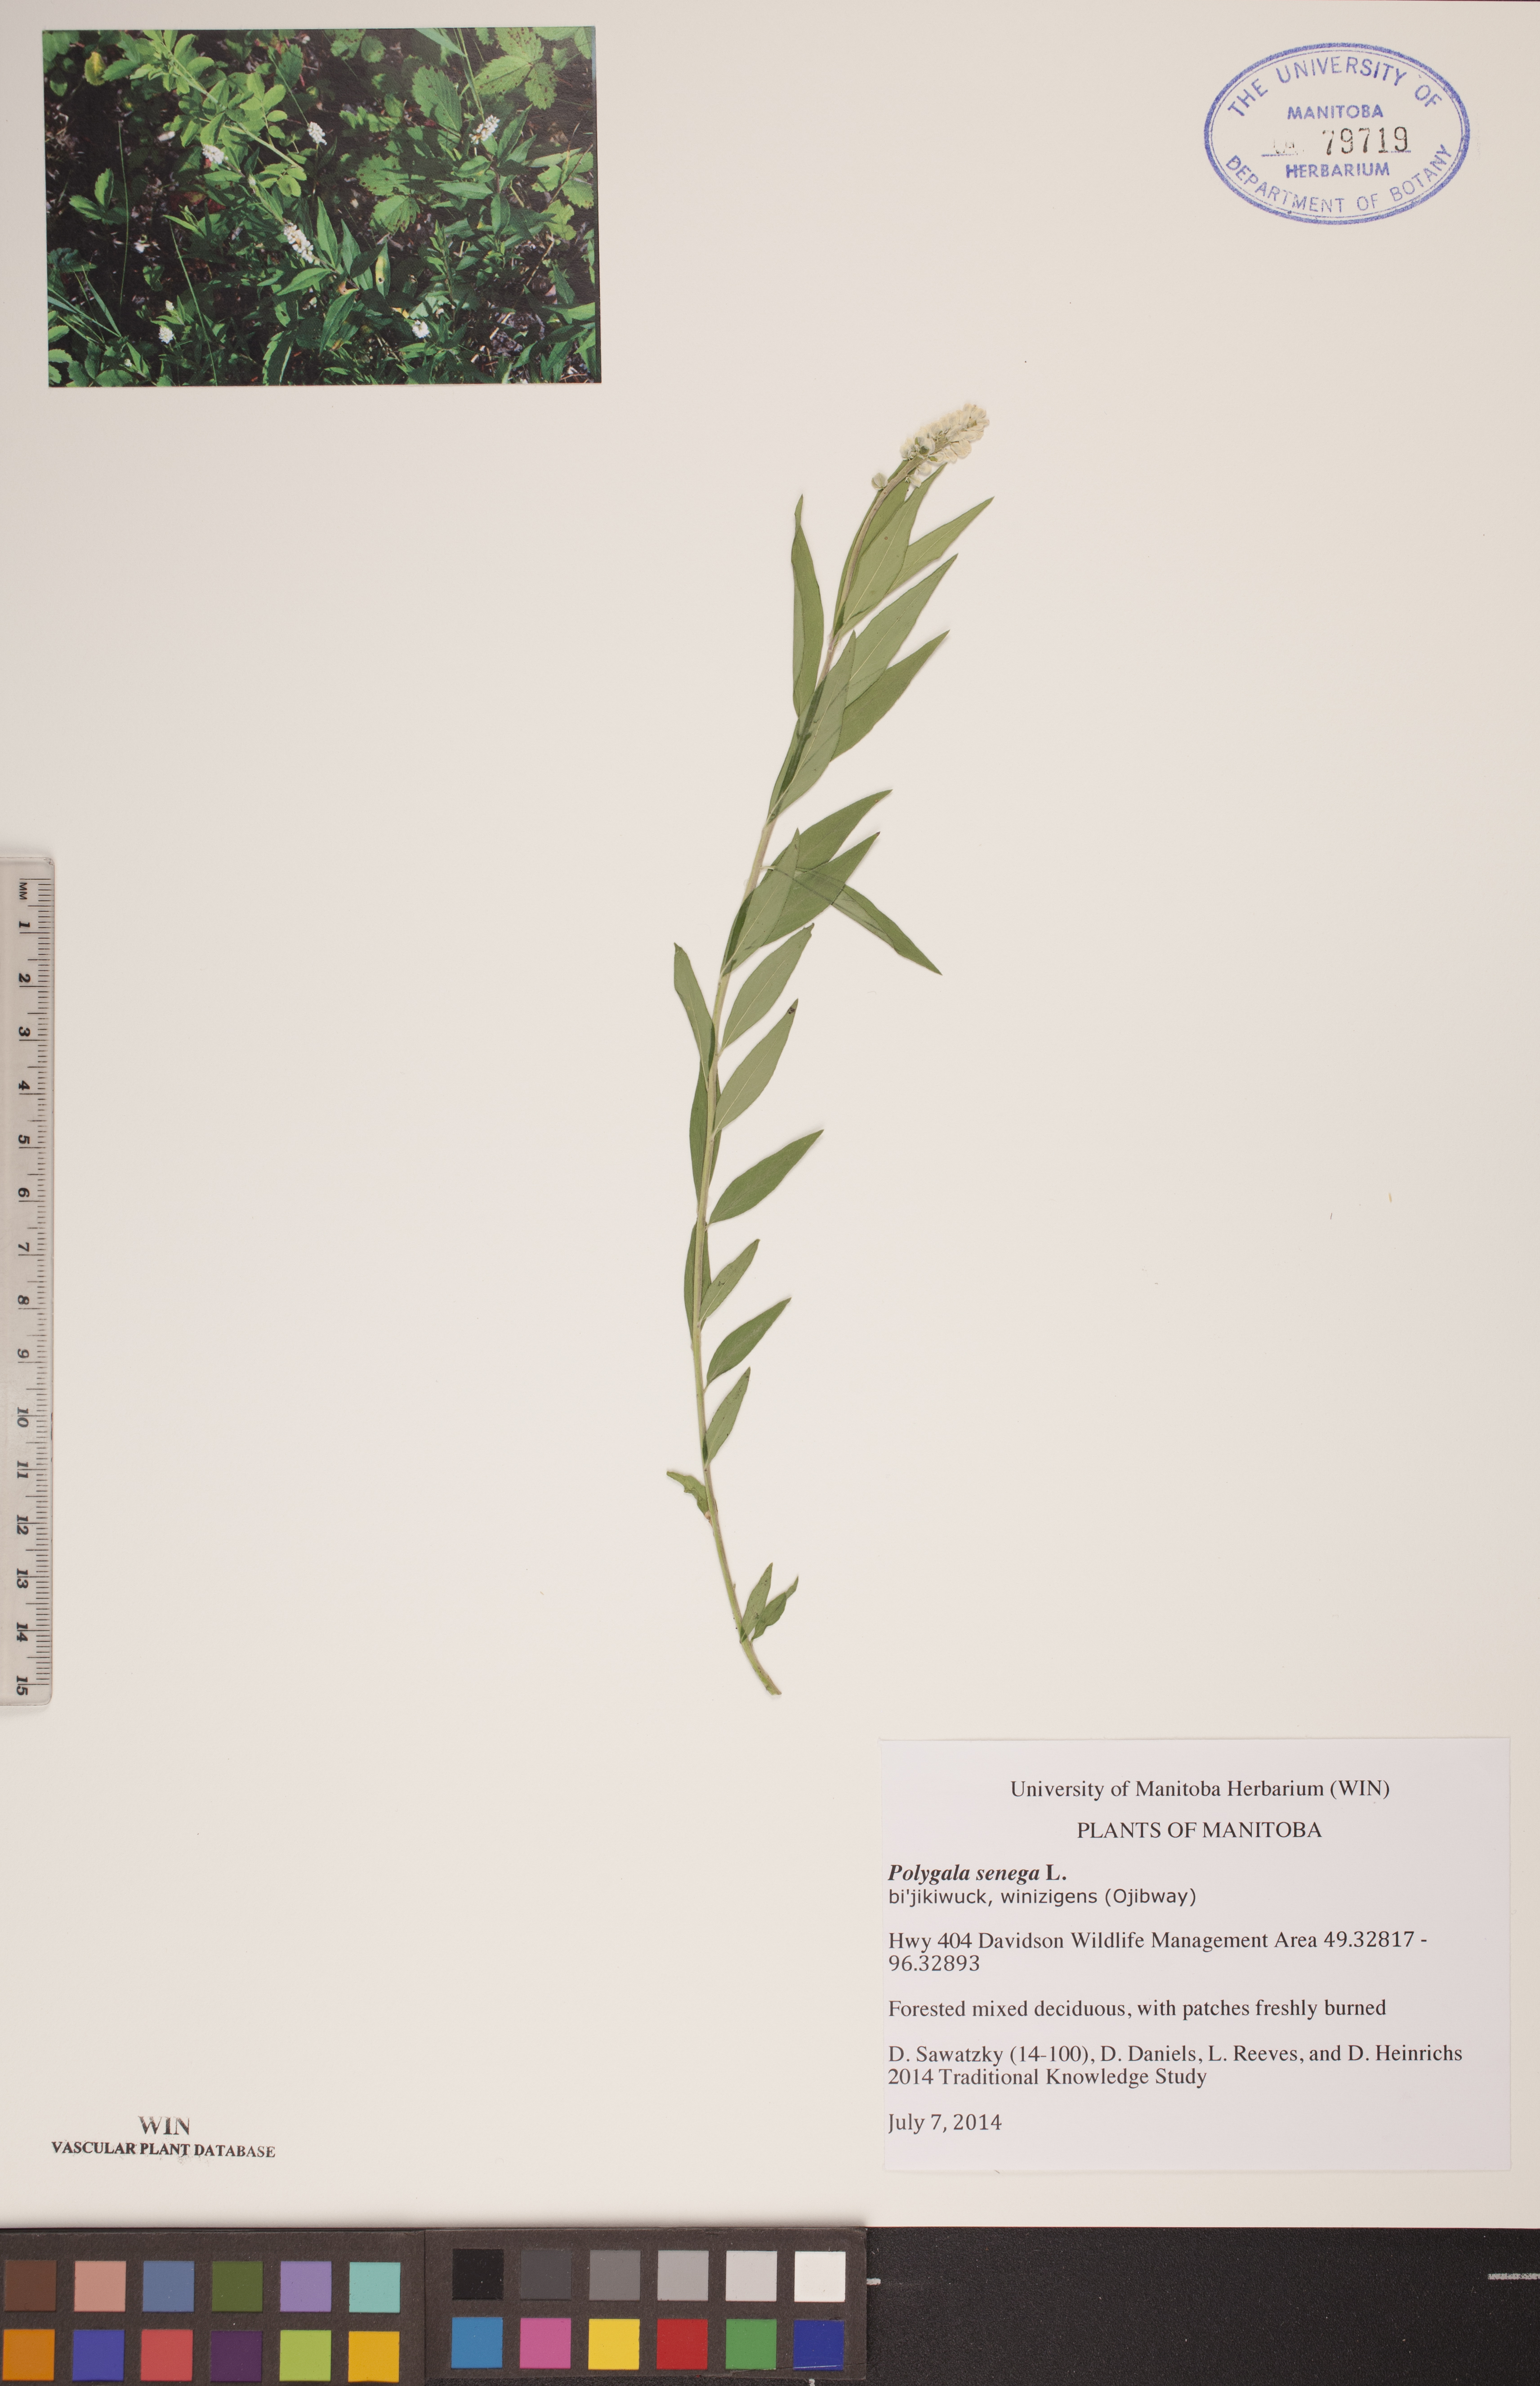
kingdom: Plantae
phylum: Tracheophyta
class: Magnoliopsida
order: Fabales
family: Polygalaceae
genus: Polygala
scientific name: Polygala senega
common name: Seneca snakeroot
